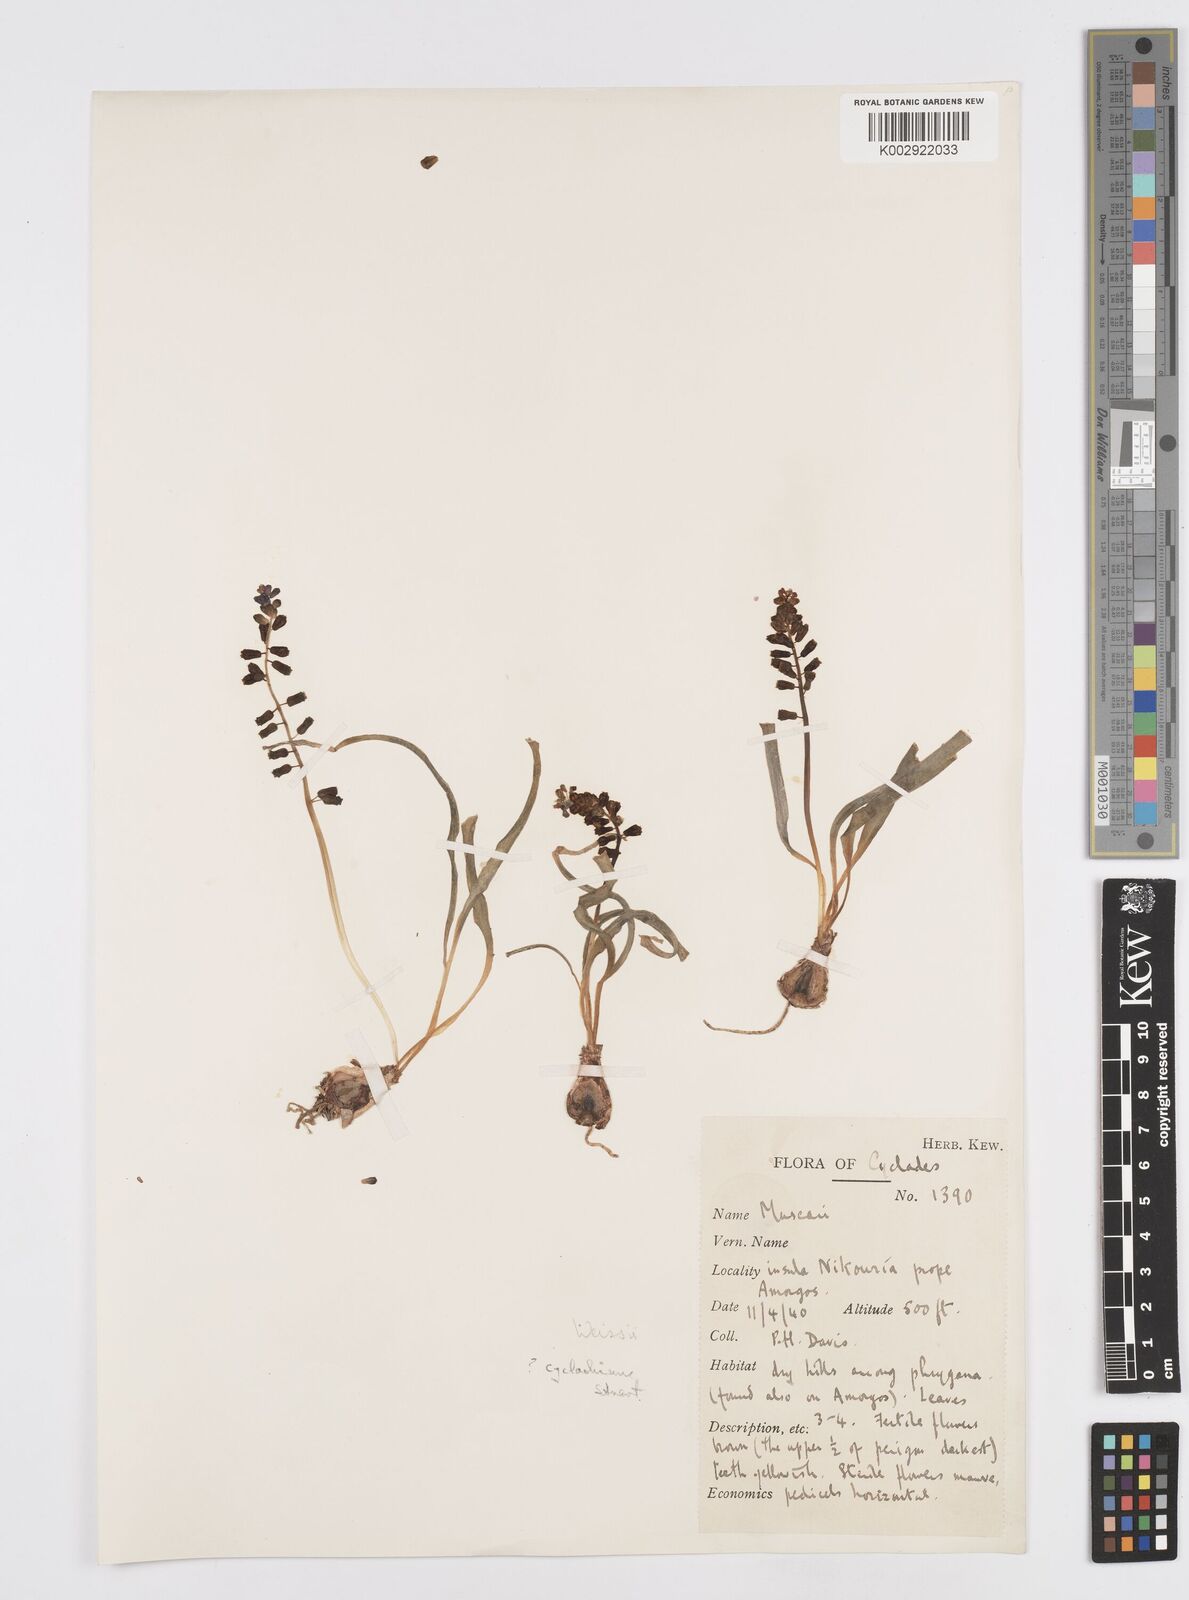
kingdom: Plantae
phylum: Tracheophyta
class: Liliopsida
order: Asparagales
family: Asparagaceae
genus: Muscari
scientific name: Muscari weissii
